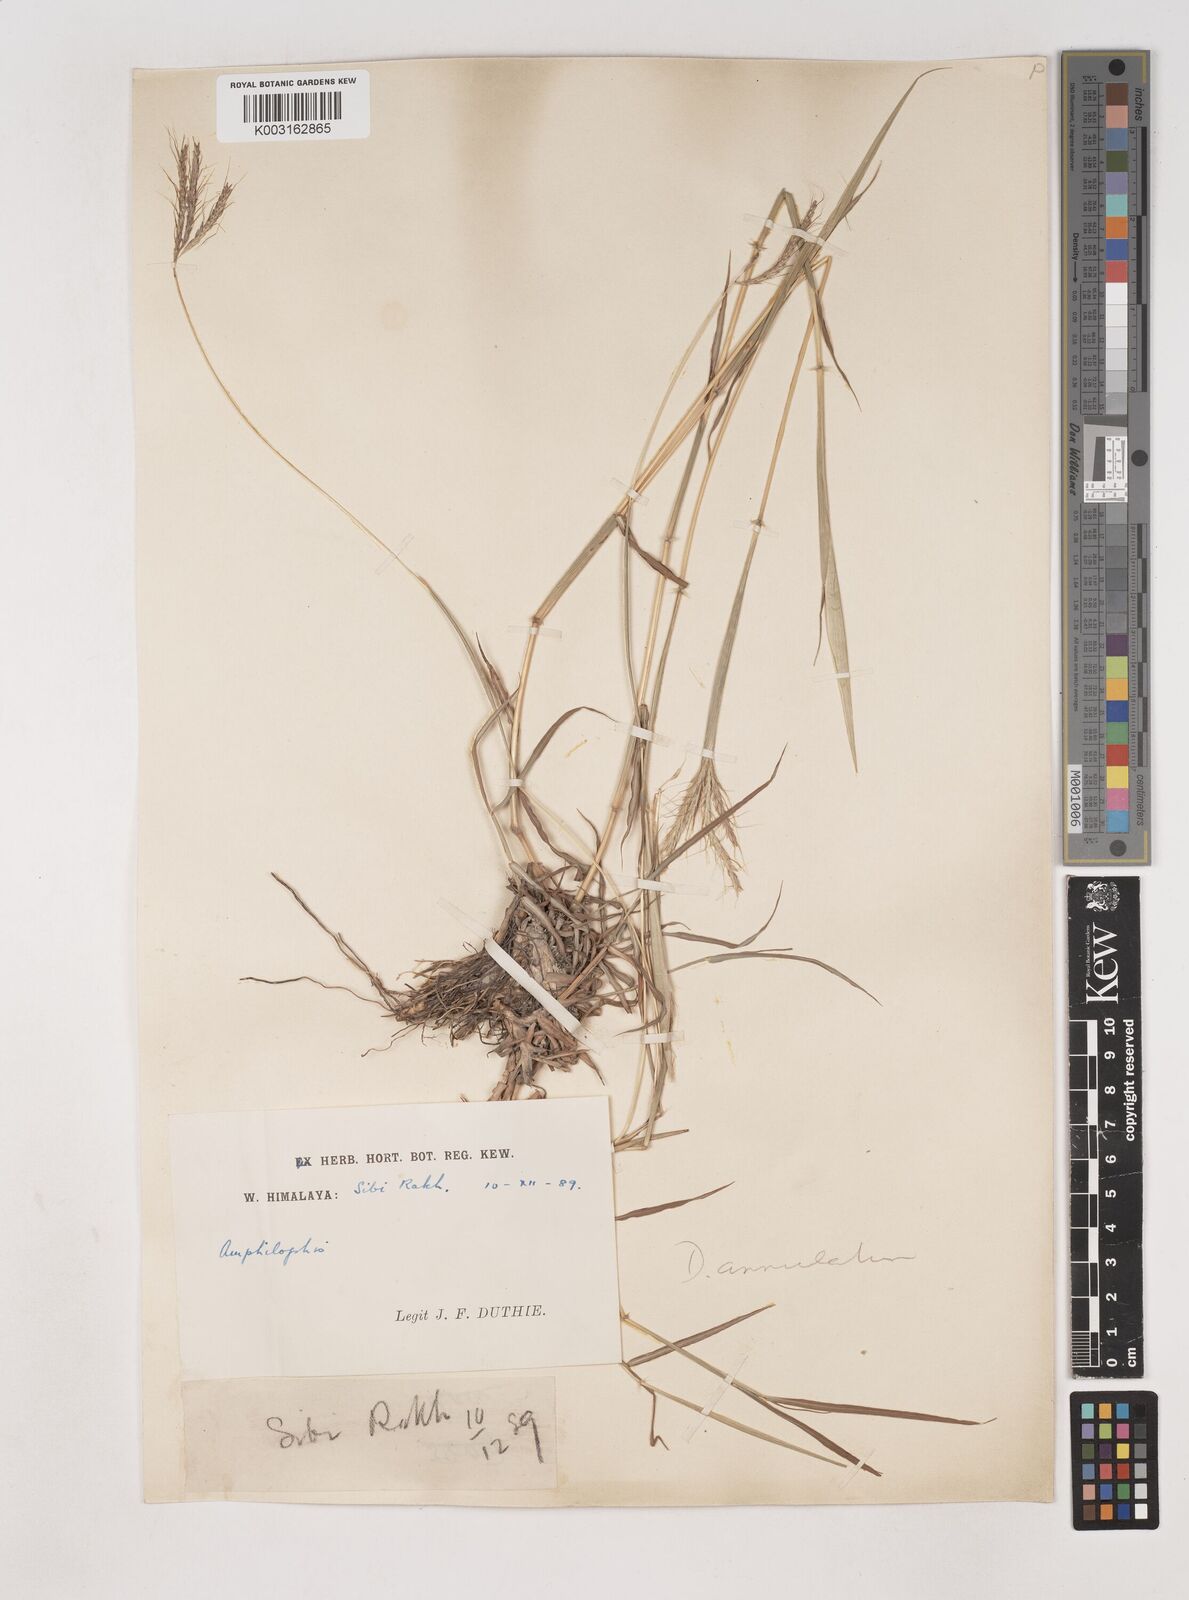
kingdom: Plantae
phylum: Tracheophyta
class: Liliopsida
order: Poales
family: Poaceae
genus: Dichanthium
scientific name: Dichanthium annulatum
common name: Kleberg's bluestem
